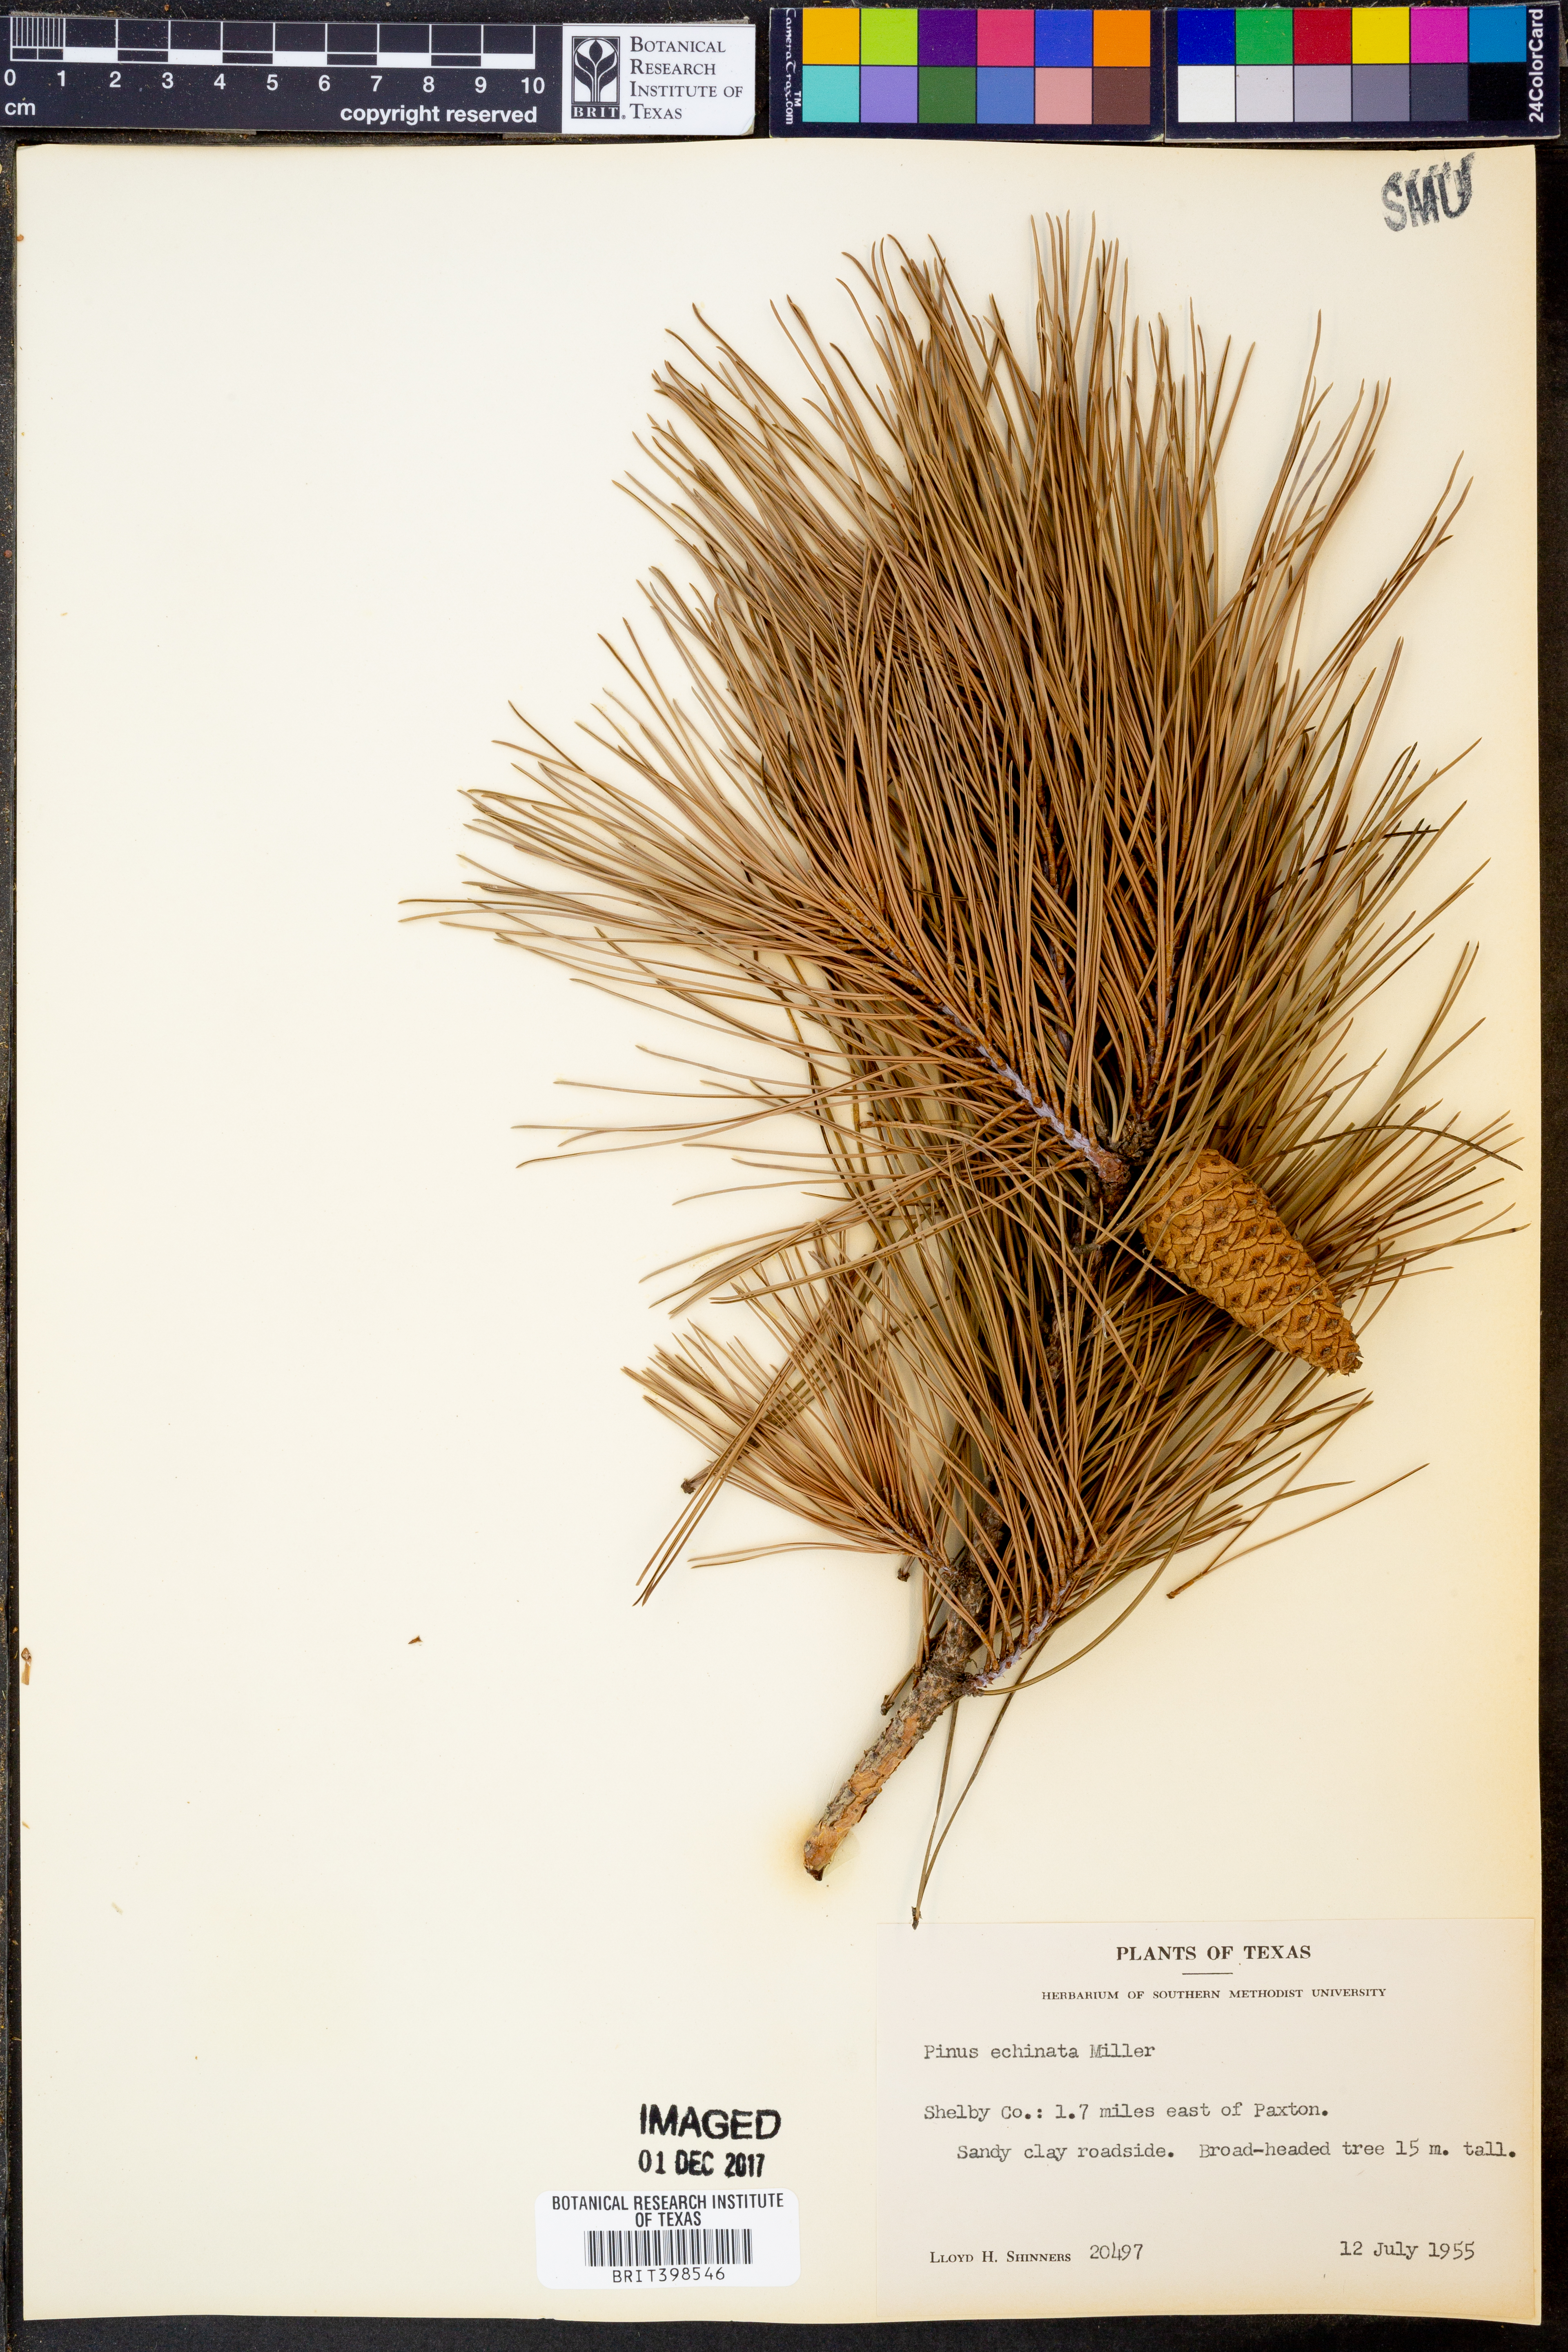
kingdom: Plantae
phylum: Tracheophyta
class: Pinopsida
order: Pinales
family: Pinaceae
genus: Pinus
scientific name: Pinus echinata
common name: Shortleaf pine
